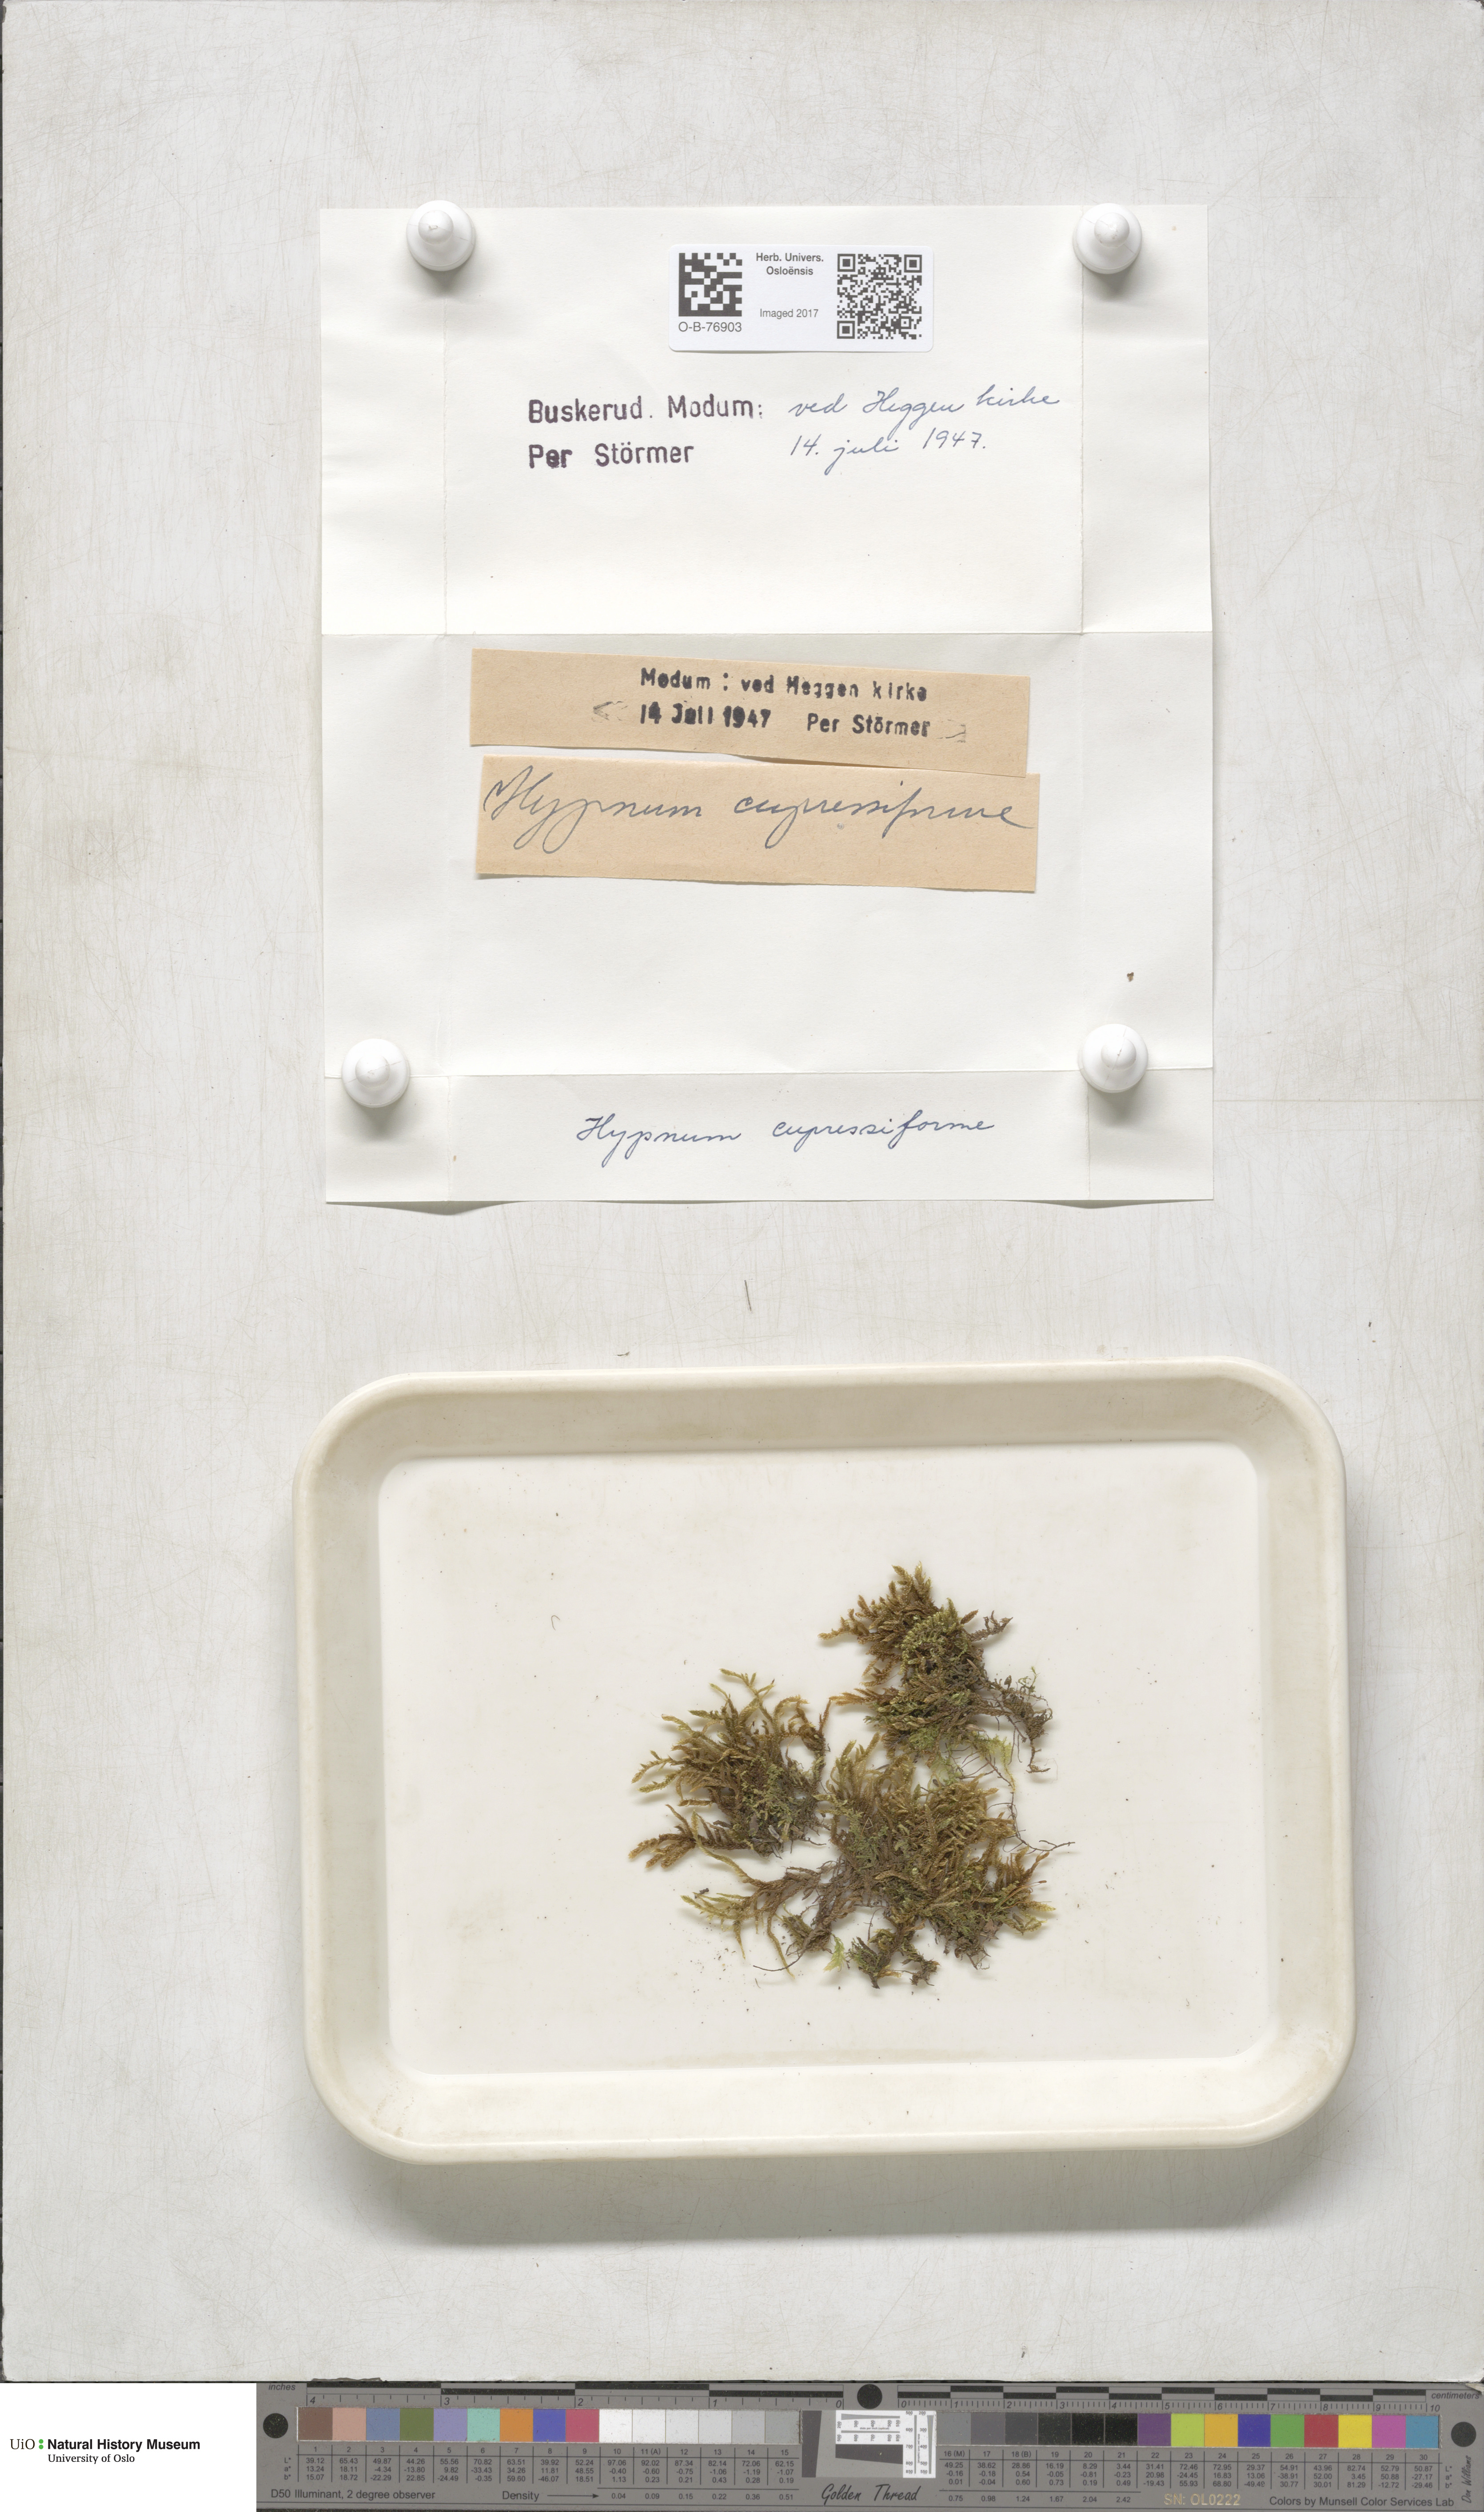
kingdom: Plantae
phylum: Bryophyta
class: Bryopsida
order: Hypnales
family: Hypnaceae
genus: Hypnum
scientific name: Hypnum cupressiforme
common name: Cypress-leaved plait-moss
